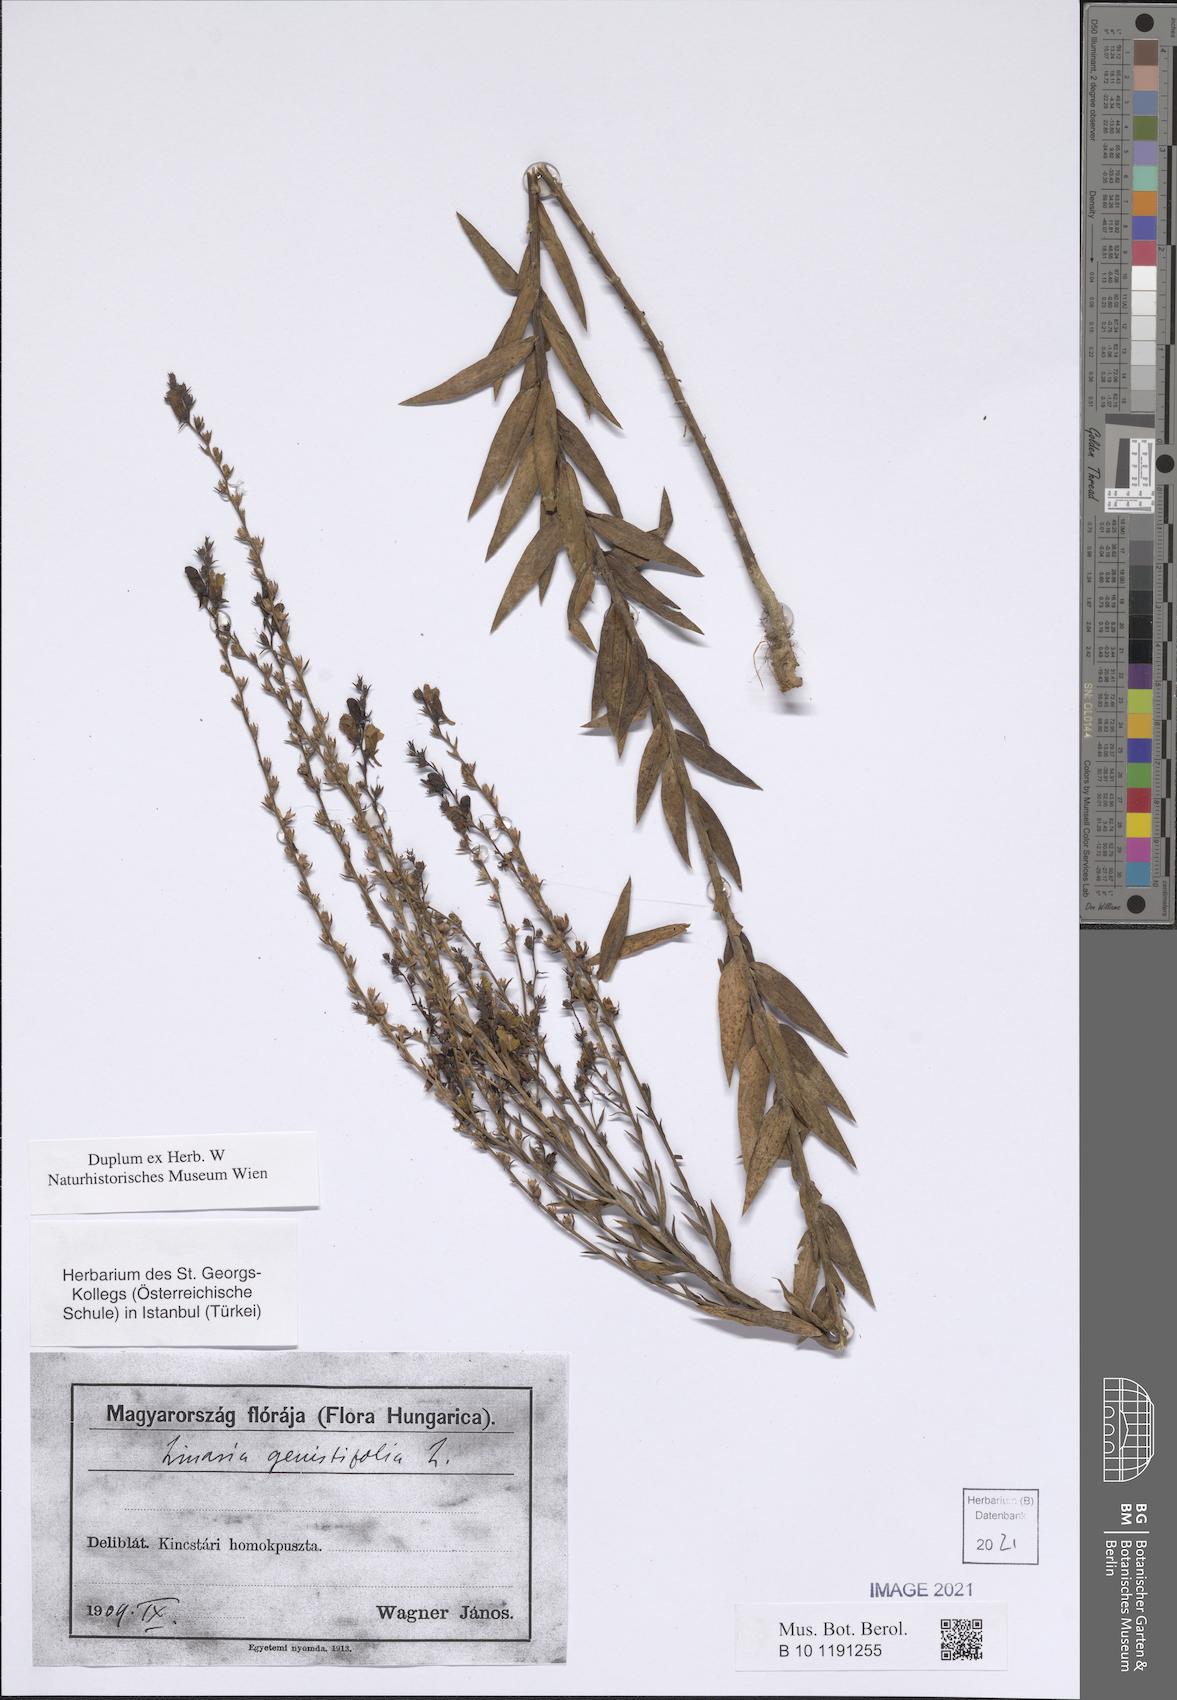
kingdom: Plantae
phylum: Tracheophyta
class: Magnoliopsida
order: Lamiales
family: Plantaginaceae
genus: Linaria
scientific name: Linaria genistifolia
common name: Broomleaf toadflax
